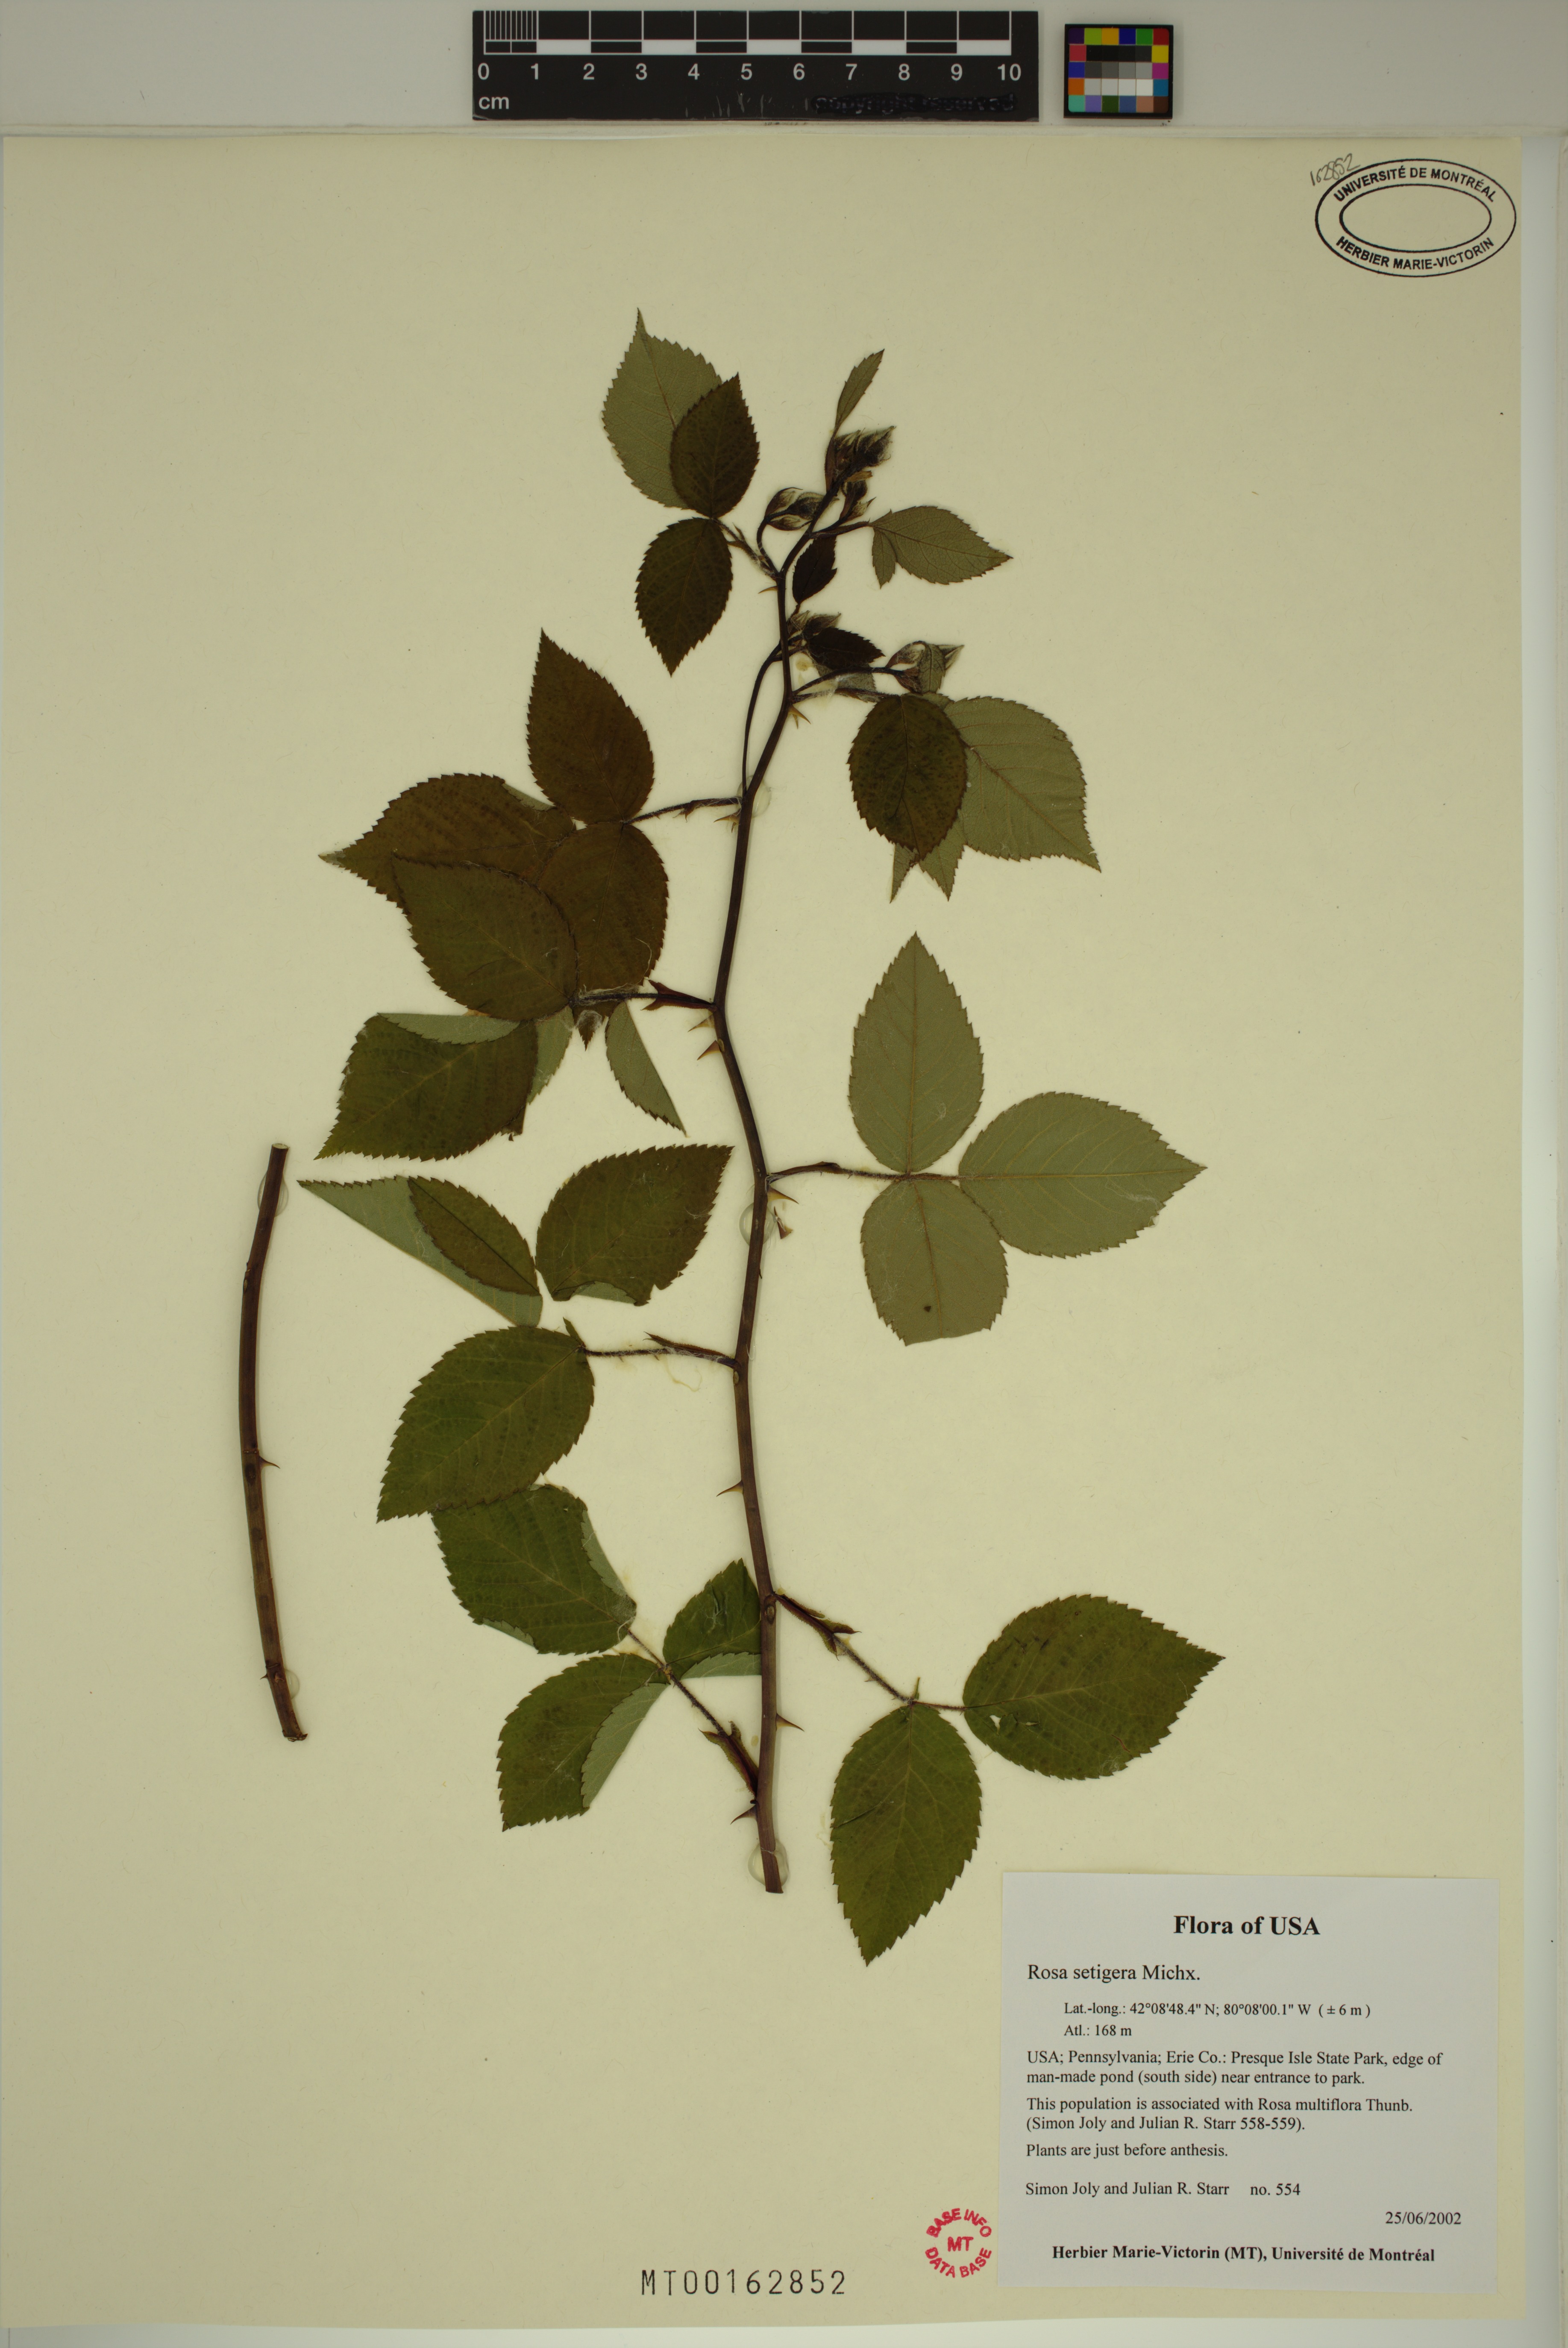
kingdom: Plantae
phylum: Tracheophyta
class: Magnoliopsida
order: Rosales
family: Rosaceae
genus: Rosa
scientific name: Rosa setigera
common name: Prairie rose
